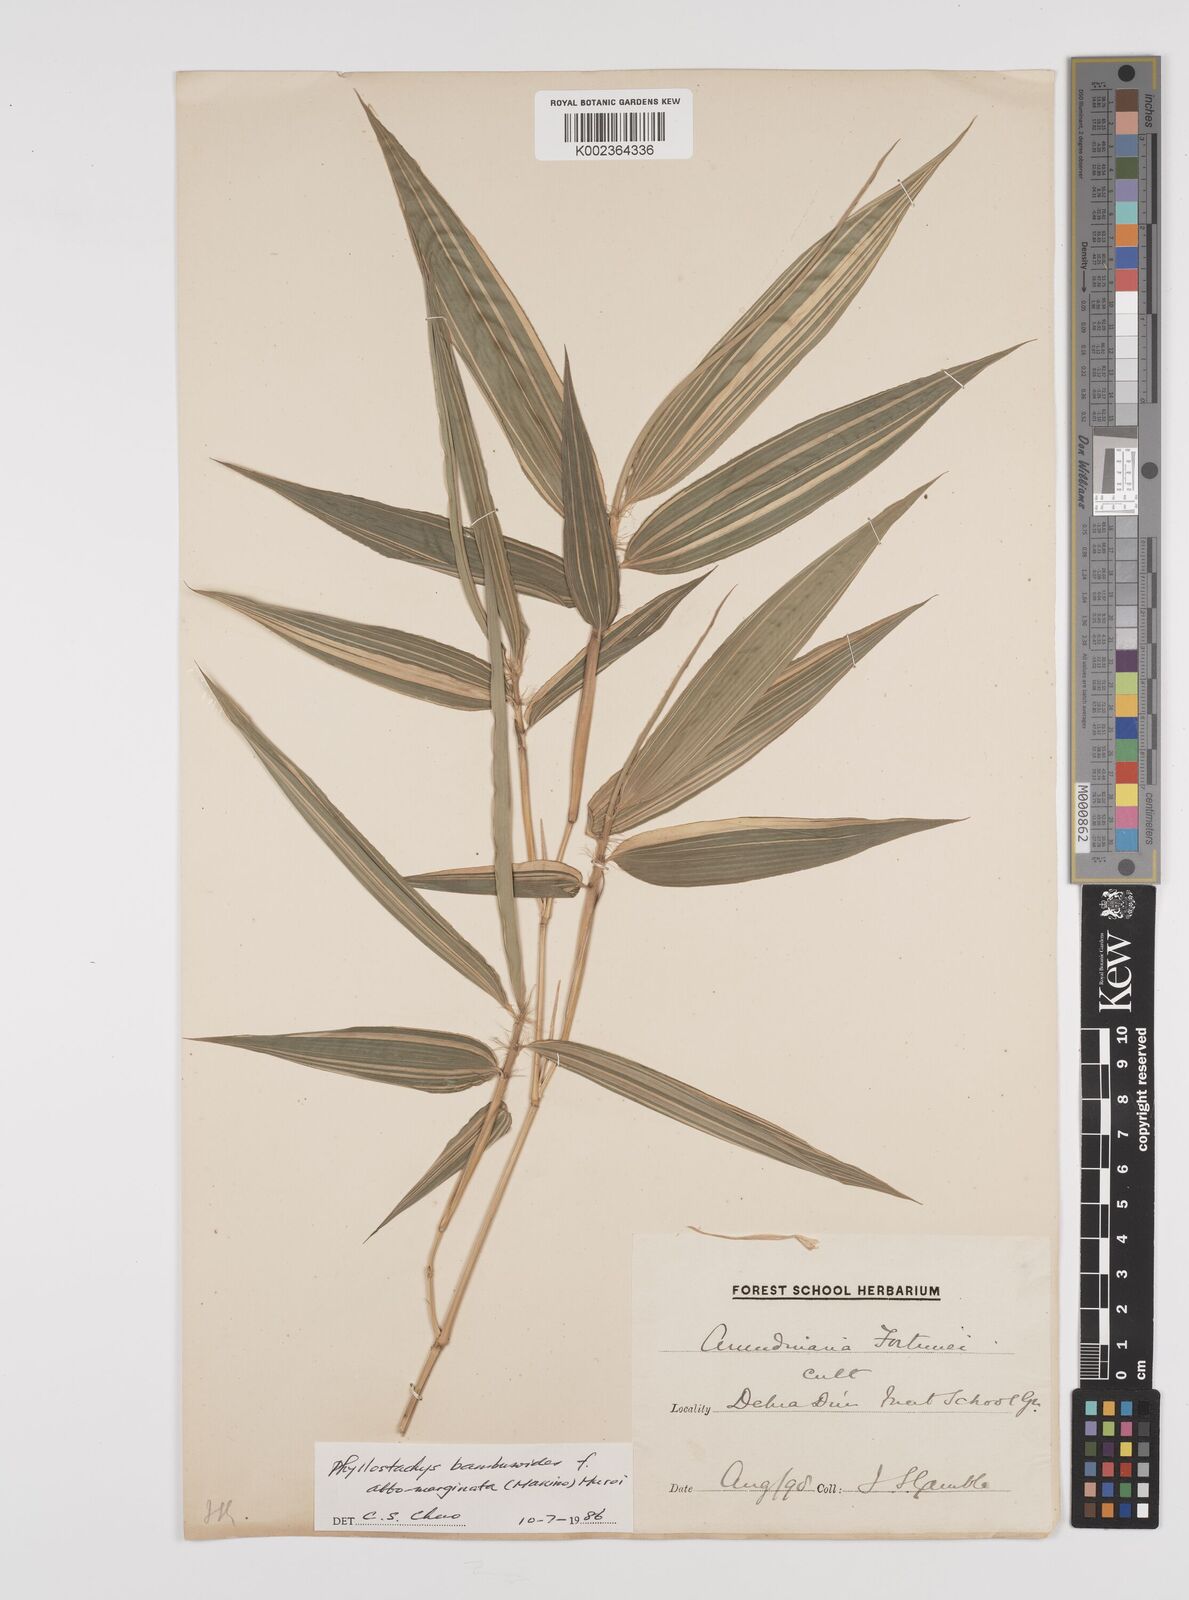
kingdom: Plantae
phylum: Tracheophyta
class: Liliopsida
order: Poales
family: Poaceae
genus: Phyllostachys
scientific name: Phyllostachys reticulata
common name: Bamboo
